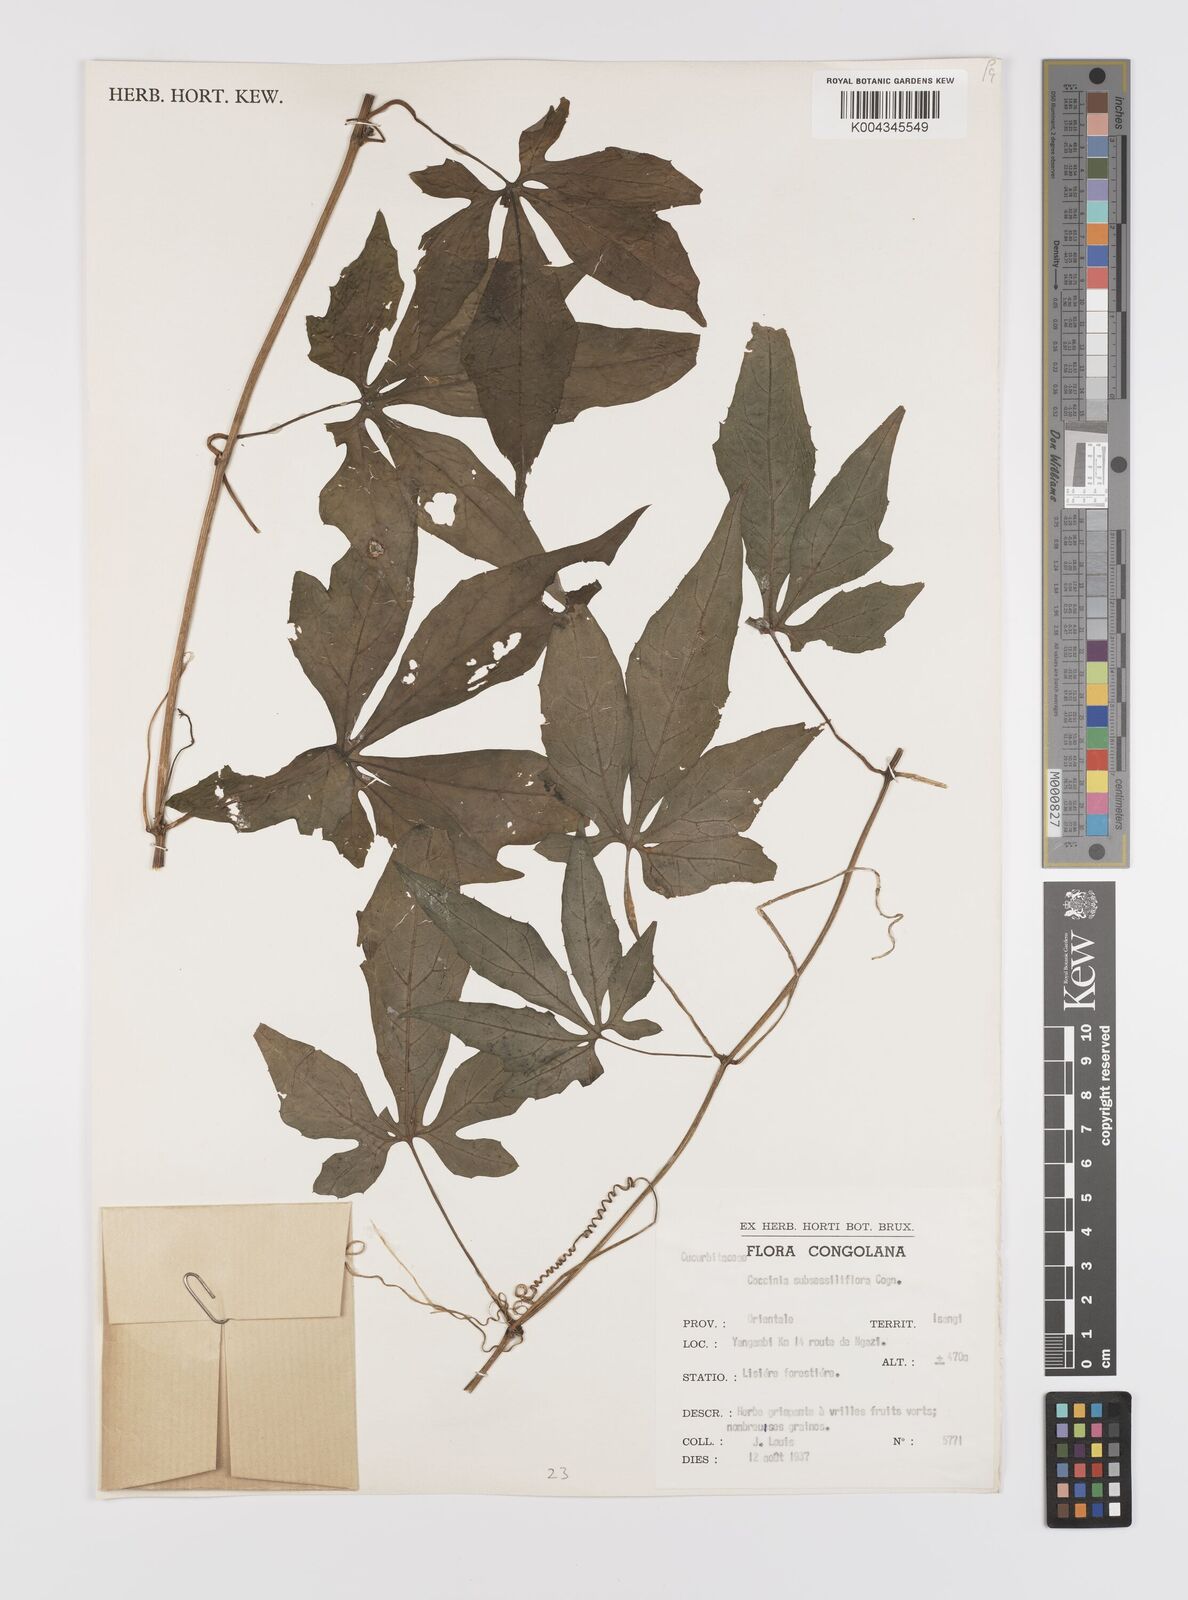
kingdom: Plantae
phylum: Tracheophyta
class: Magnoliopsida
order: Cucurbitales
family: Cucurbitaceae
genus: Coccinia
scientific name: Coccinia subsessiliflora
